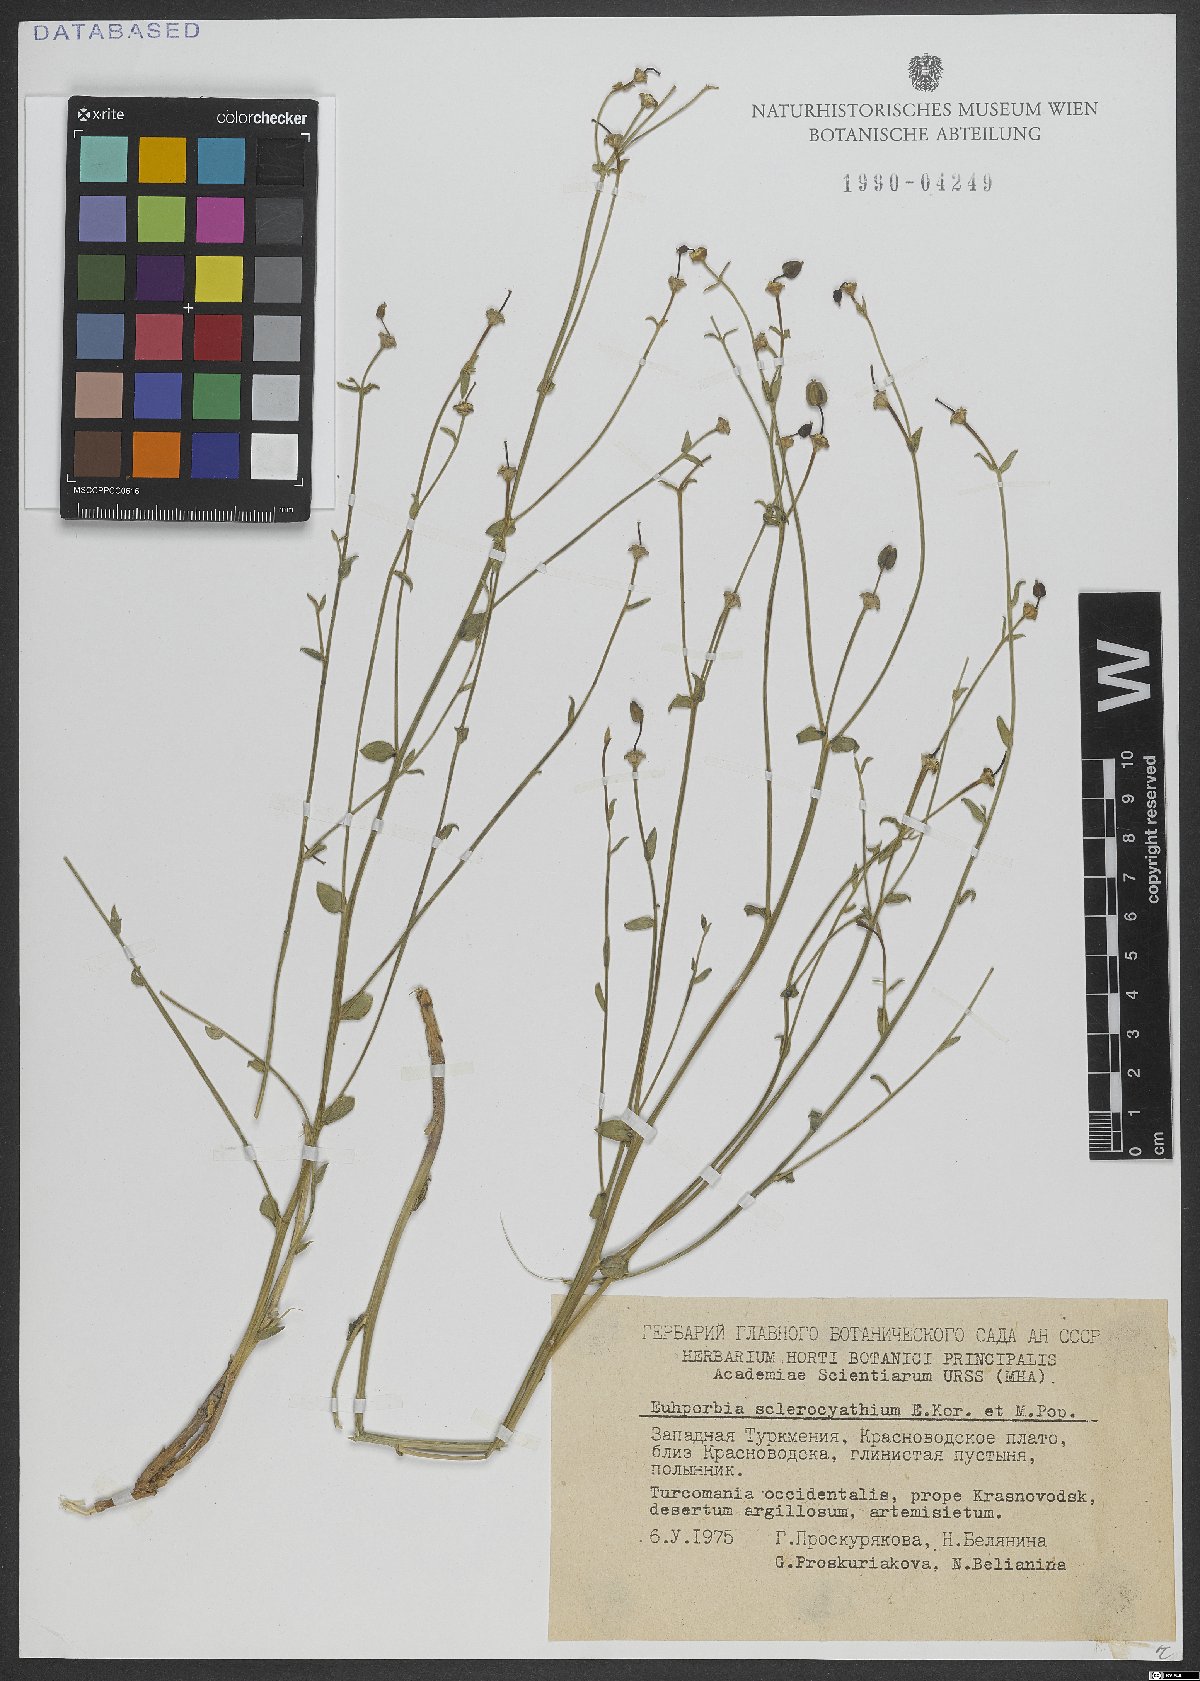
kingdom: Plantae
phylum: Tracheophyta
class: Magnoliopsida
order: Malpighiales
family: Euphorbiaceae
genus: Euphorbia
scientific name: Euphorbia sclerocyathium
